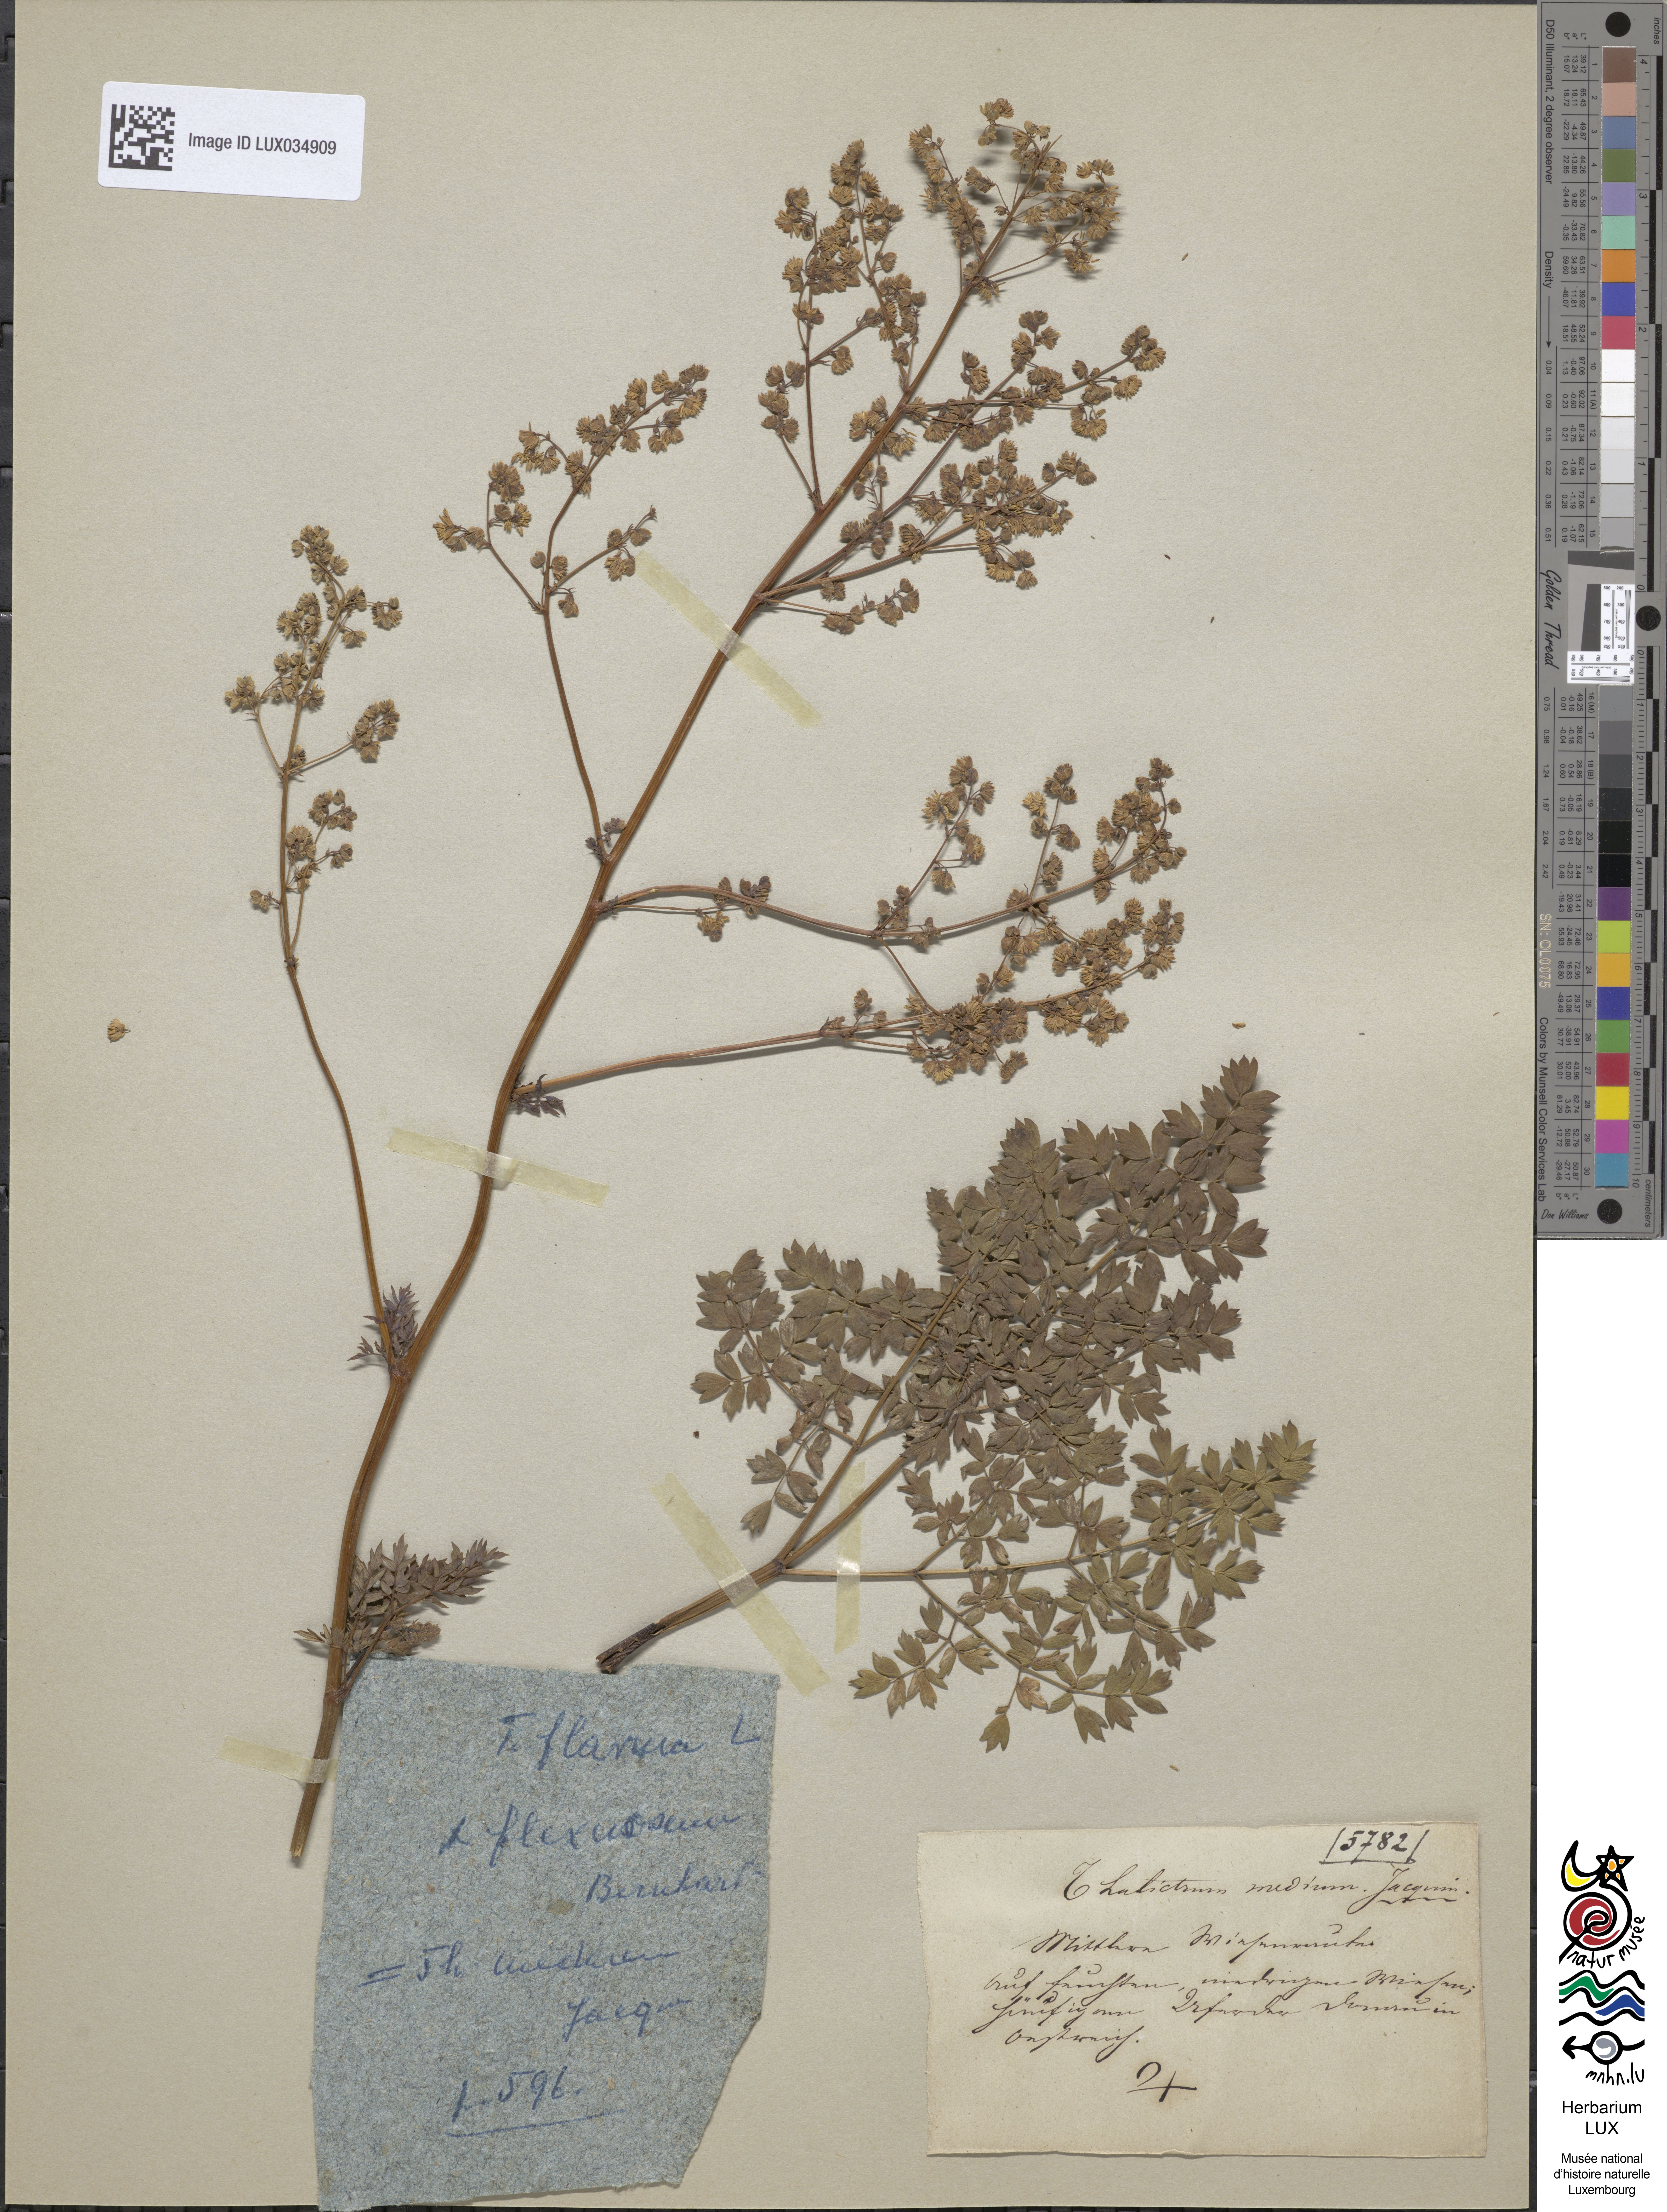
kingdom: Plantae
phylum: Tracheophyta
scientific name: Tracheophyta
